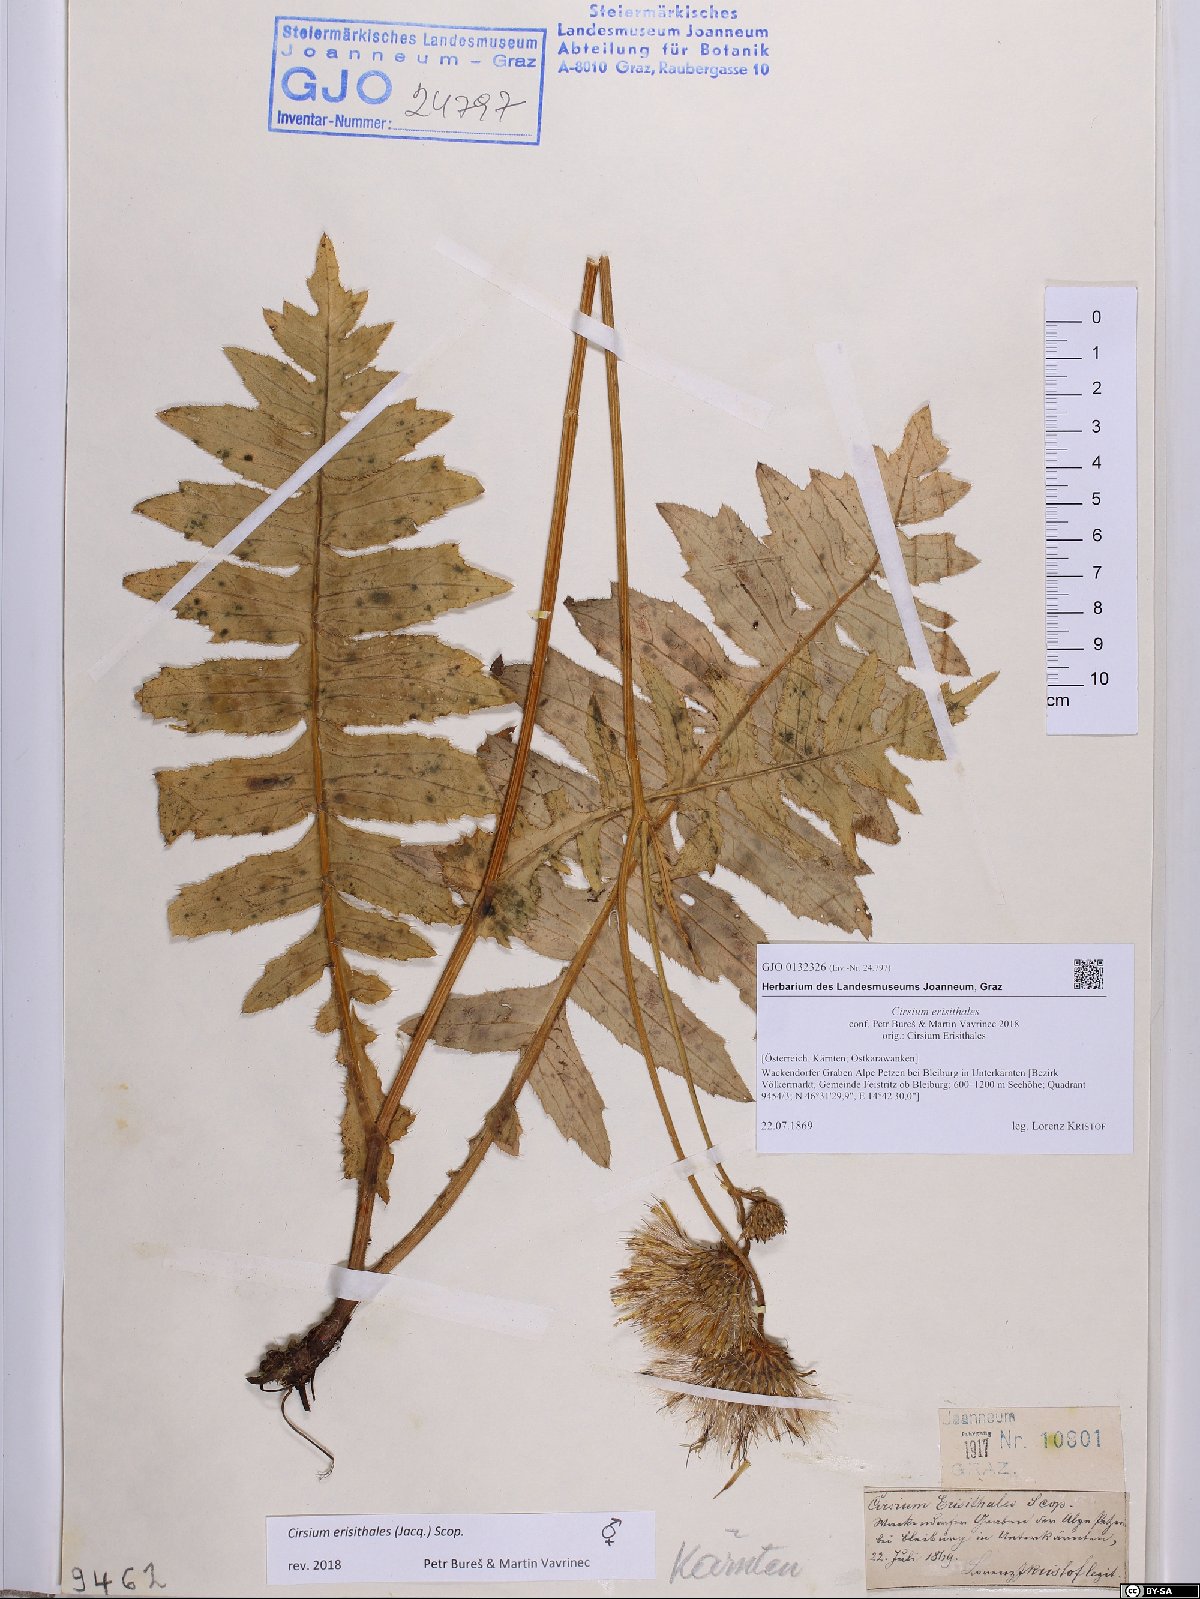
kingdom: Plantae
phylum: Tracheophyta
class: Magnoliopsida
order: Asterales
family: Asteraceae
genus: Cirsium
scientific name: Cirsium erisithales
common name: Yellow thistle
